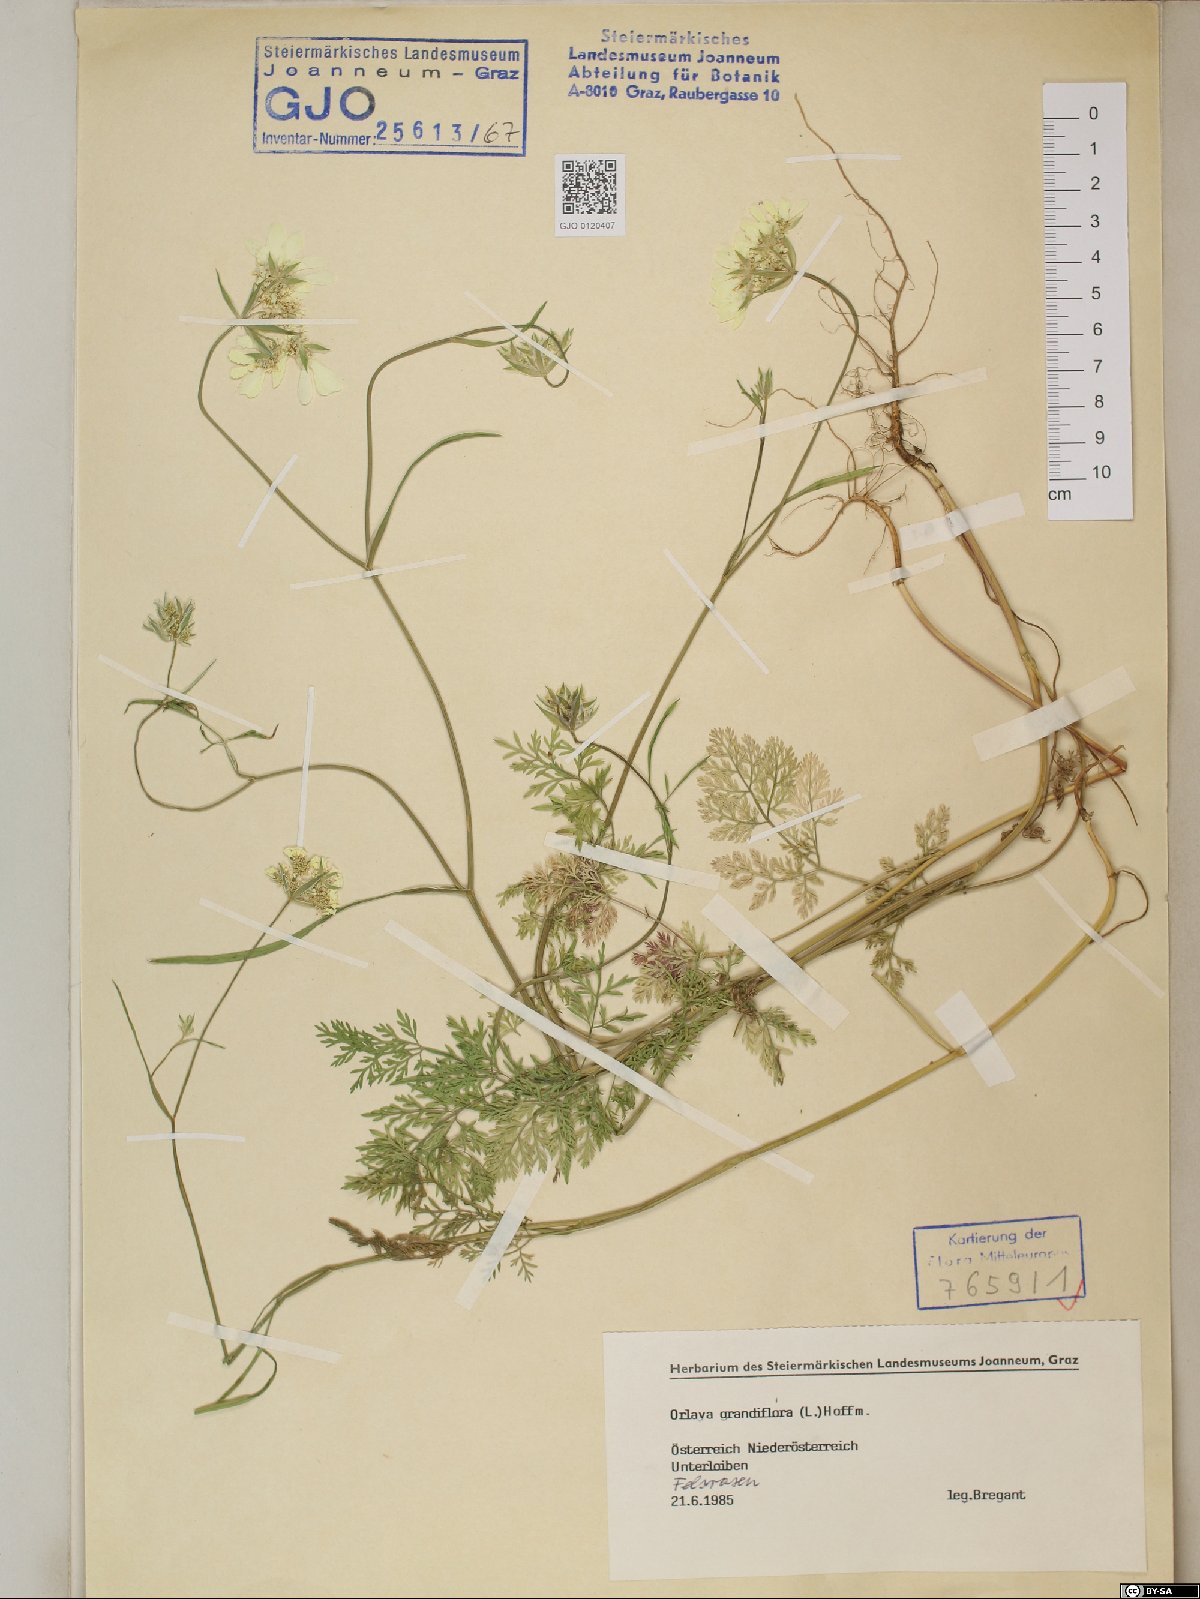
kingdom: Plantae
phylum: Tracheophyta
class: Magnoliopsida
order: Apiales
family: Apiaceae
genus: Orlaya
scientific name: Orlaya grandiflora
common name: White lace flower
